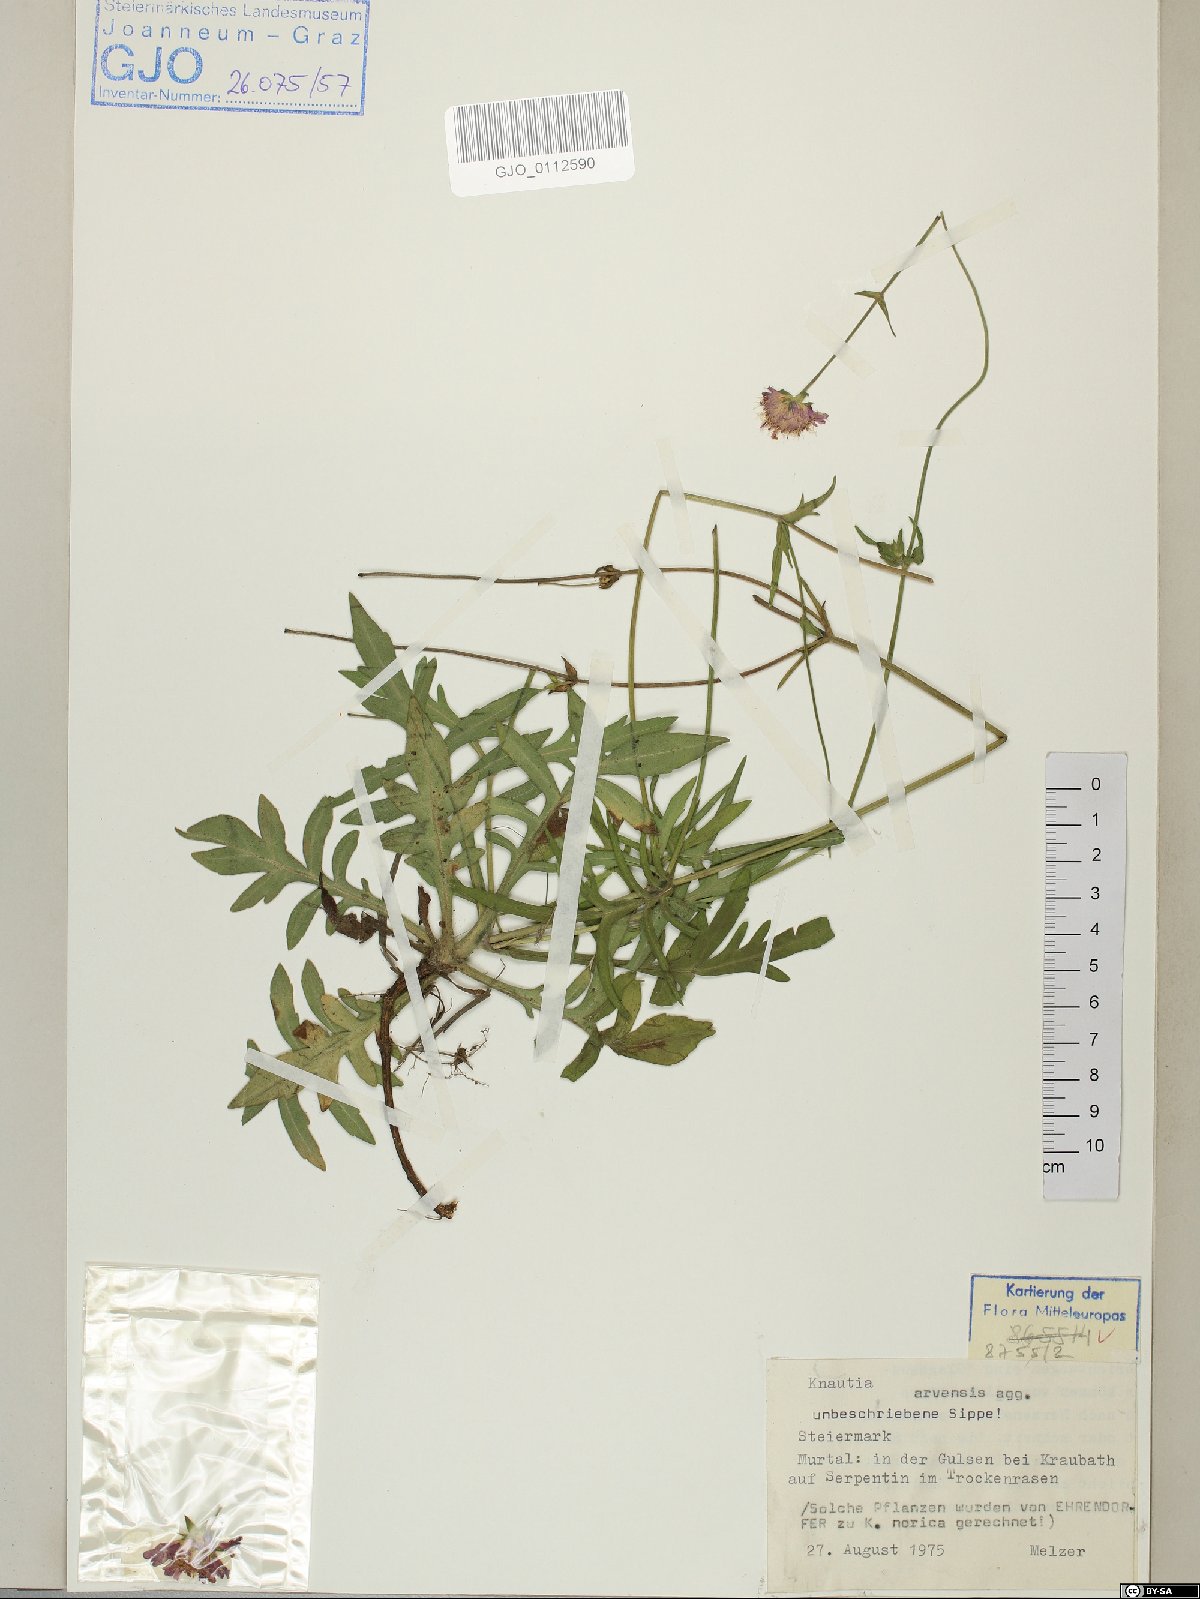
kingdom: Plantae
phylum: Tracheophyta
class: Magnoliopsida
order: Dipsacales
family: Caprifoliaceae
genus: Knautia
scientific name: Knautia arvensis
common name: Field scabiosa
